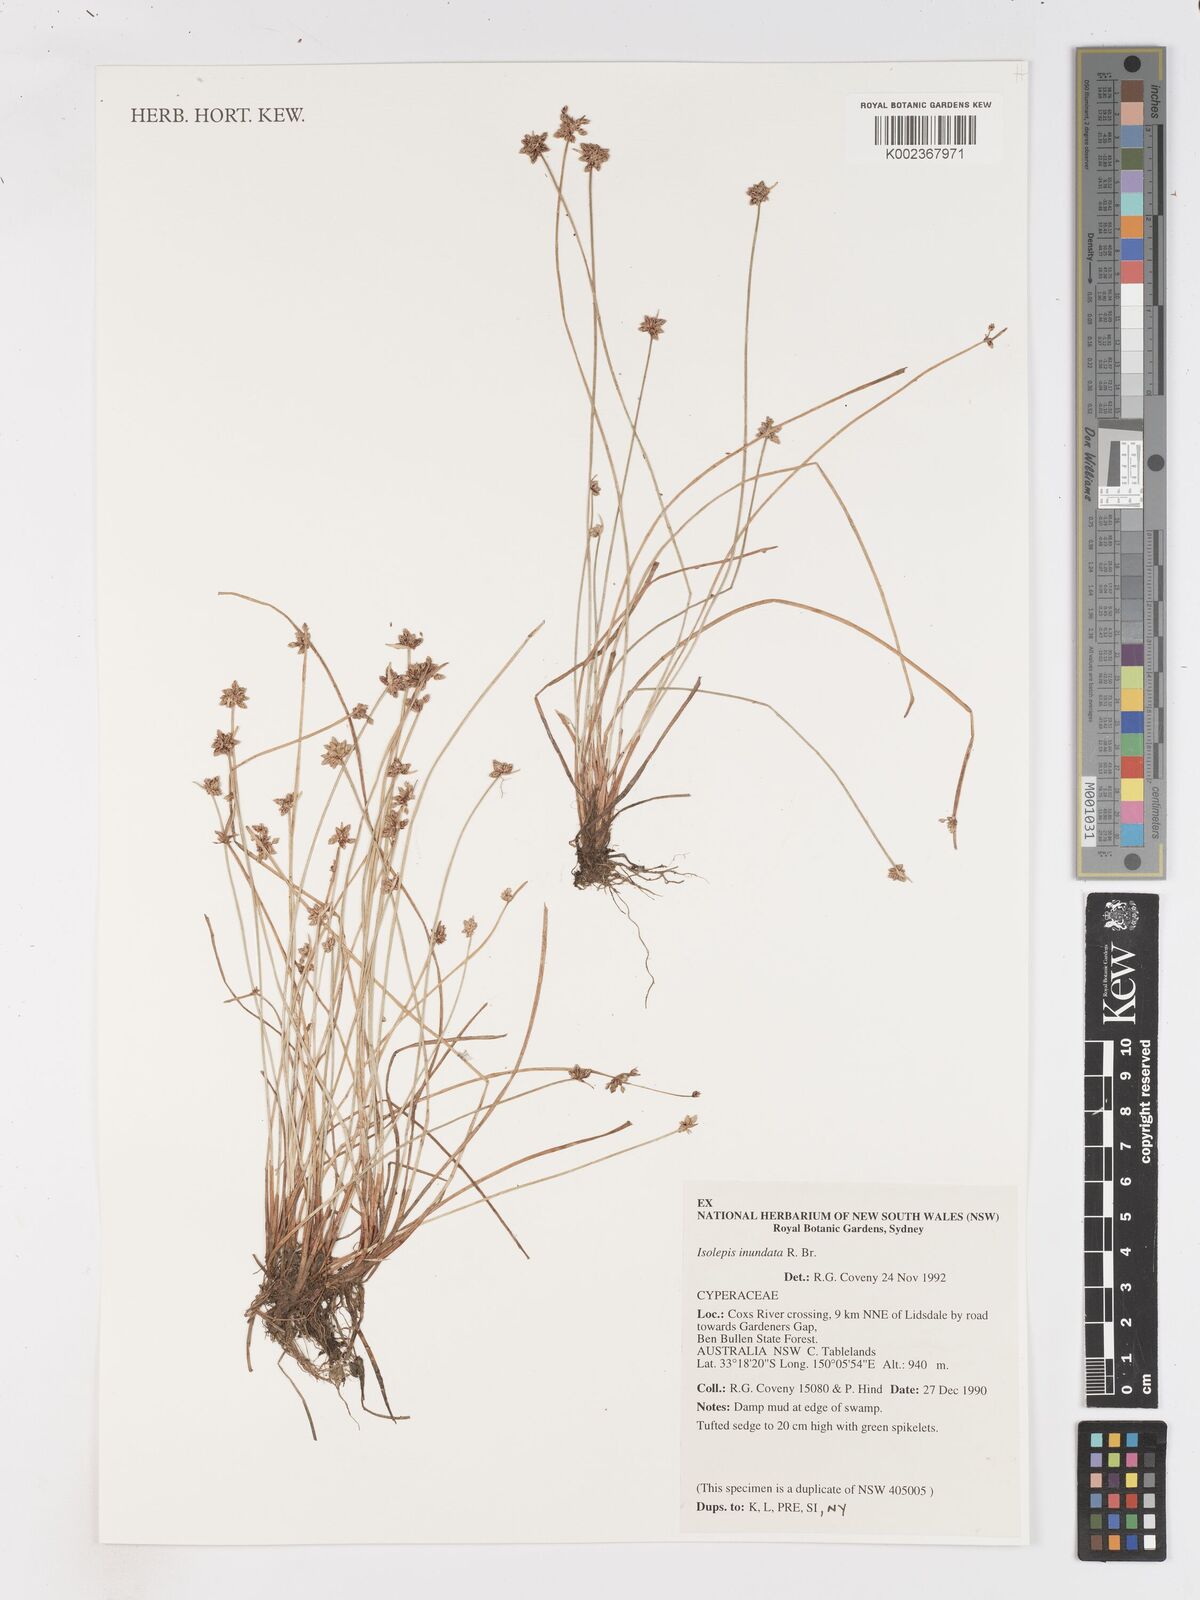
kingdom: Plantae
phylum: Tracheophyta
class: Liliopsida
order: Poales
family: Cyperaceae
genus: Isolepis
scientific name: Isolepis inundata
